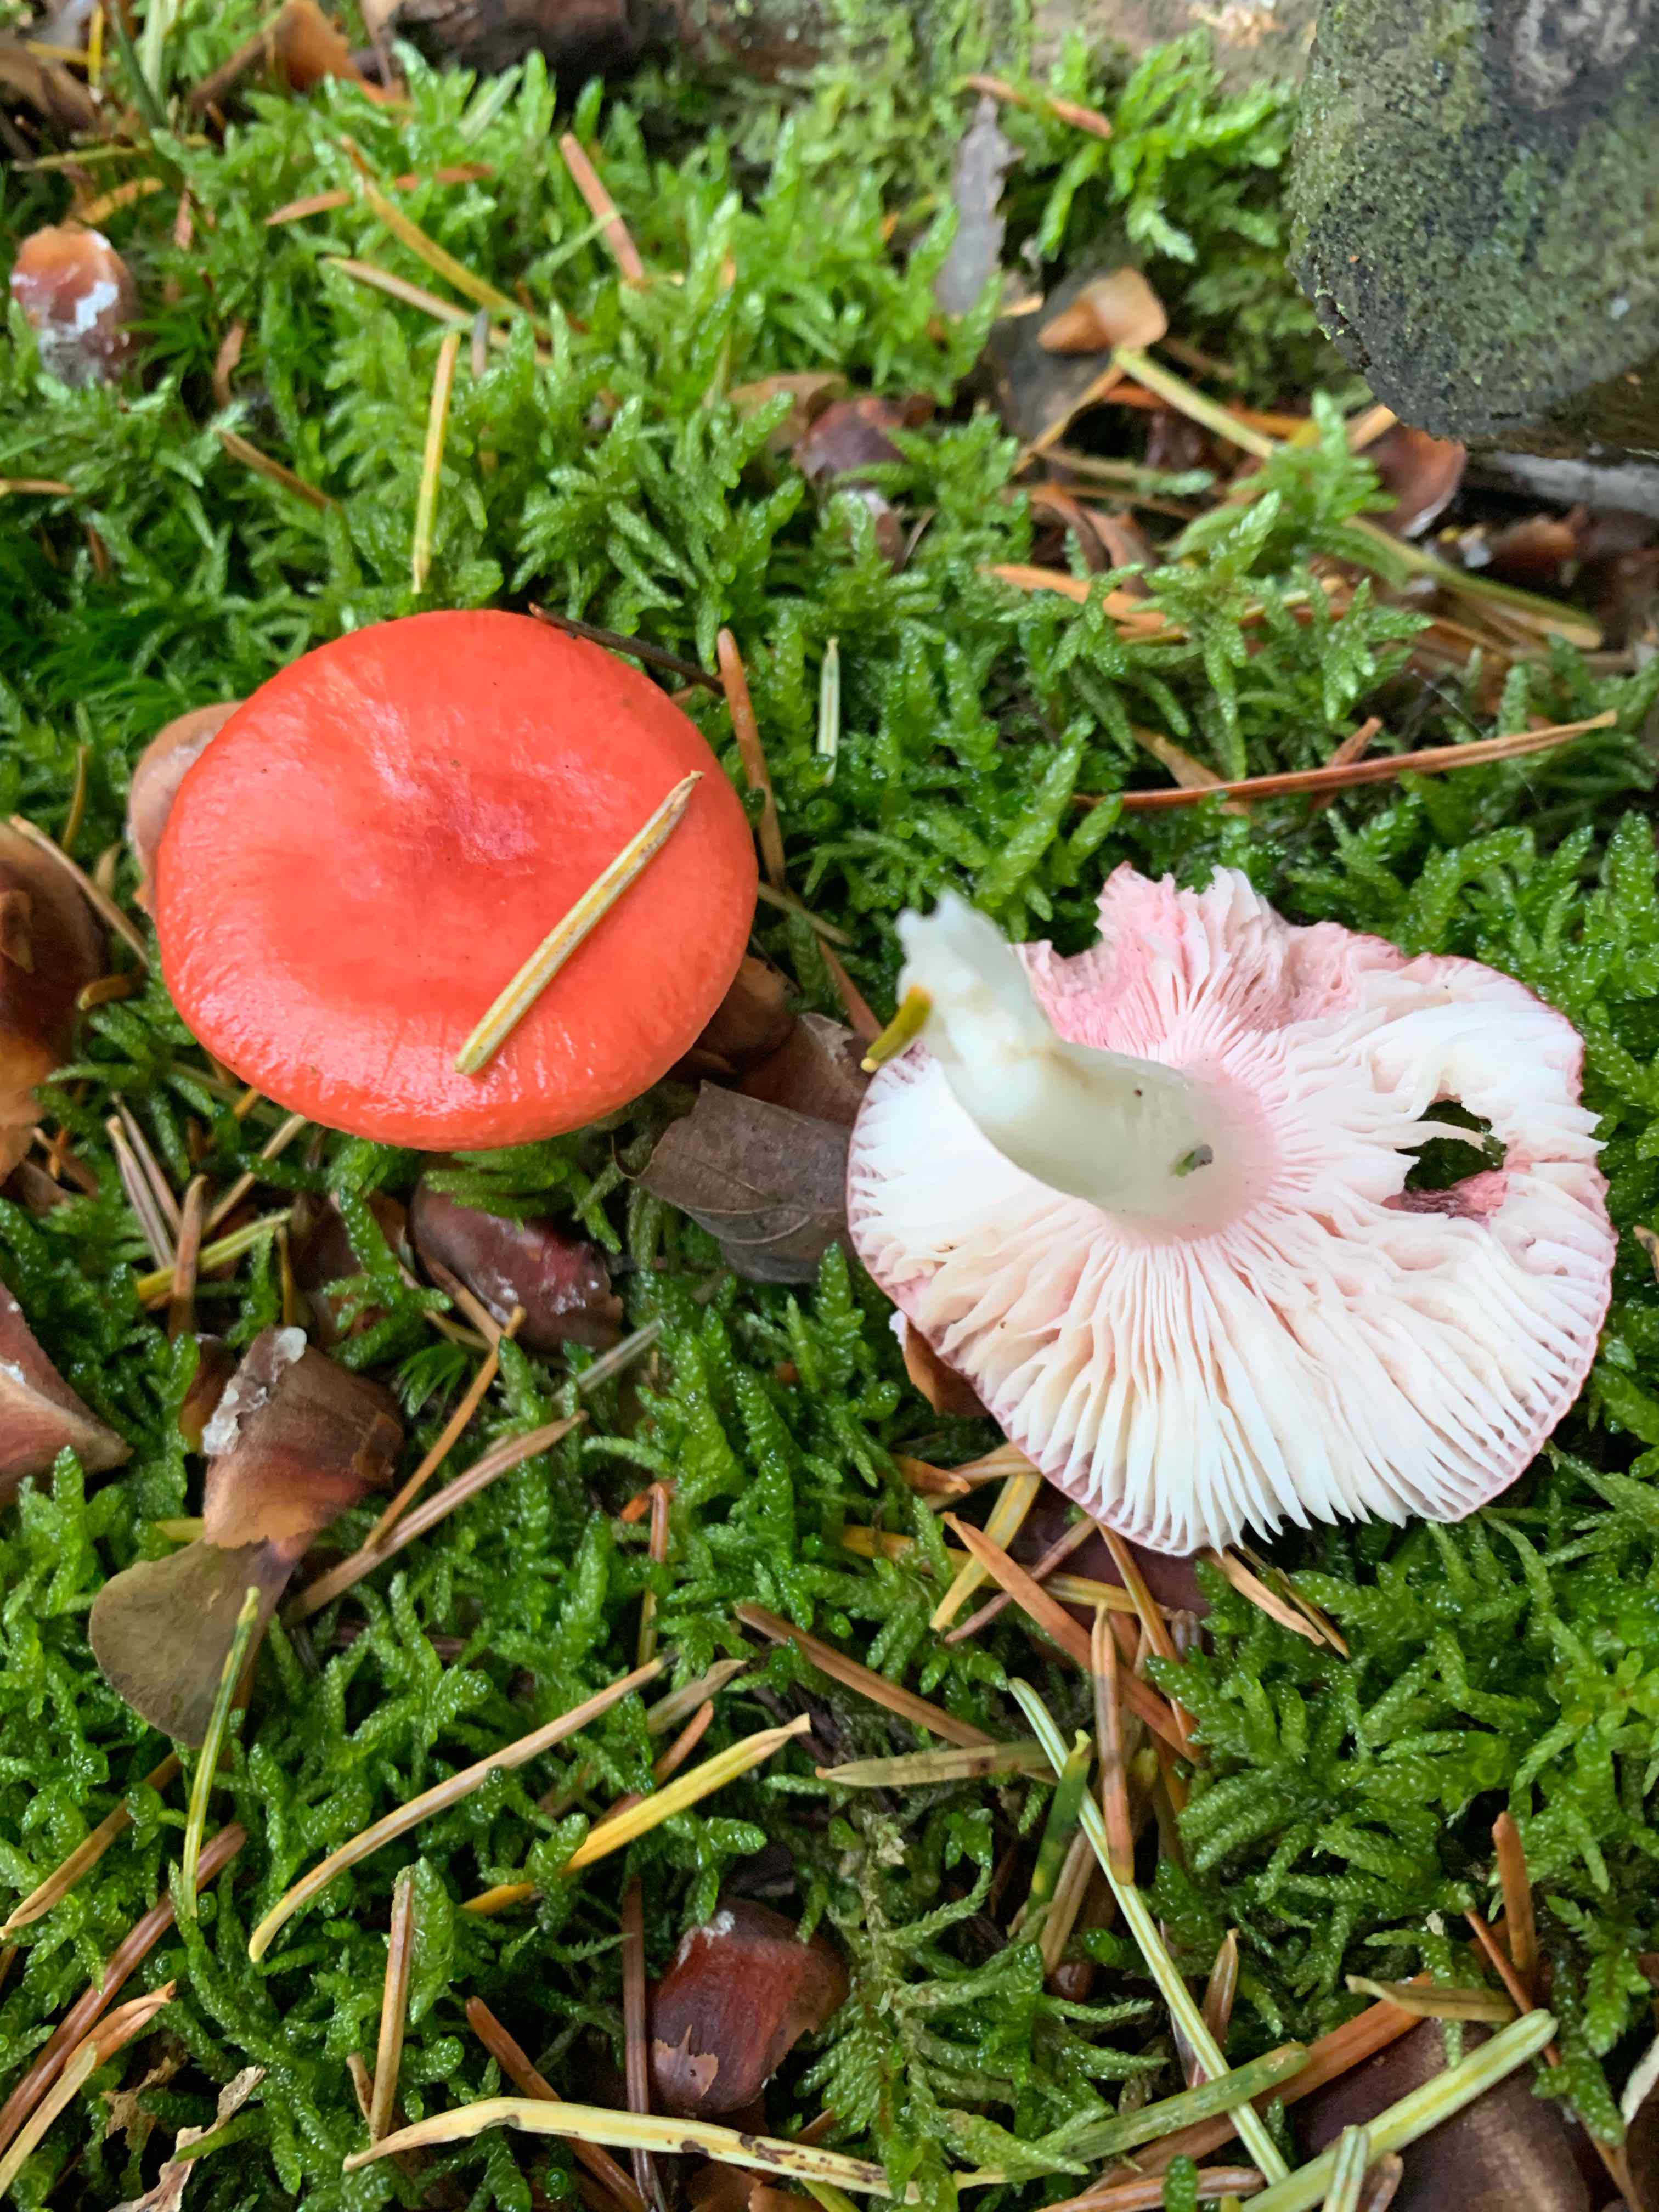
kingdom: Fungi
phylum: Basidiomycota
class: Agaricomycetes
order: Russulales
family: Russulaceae
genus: Russula
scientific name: Russula emetica
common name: stor gift-skørhat
